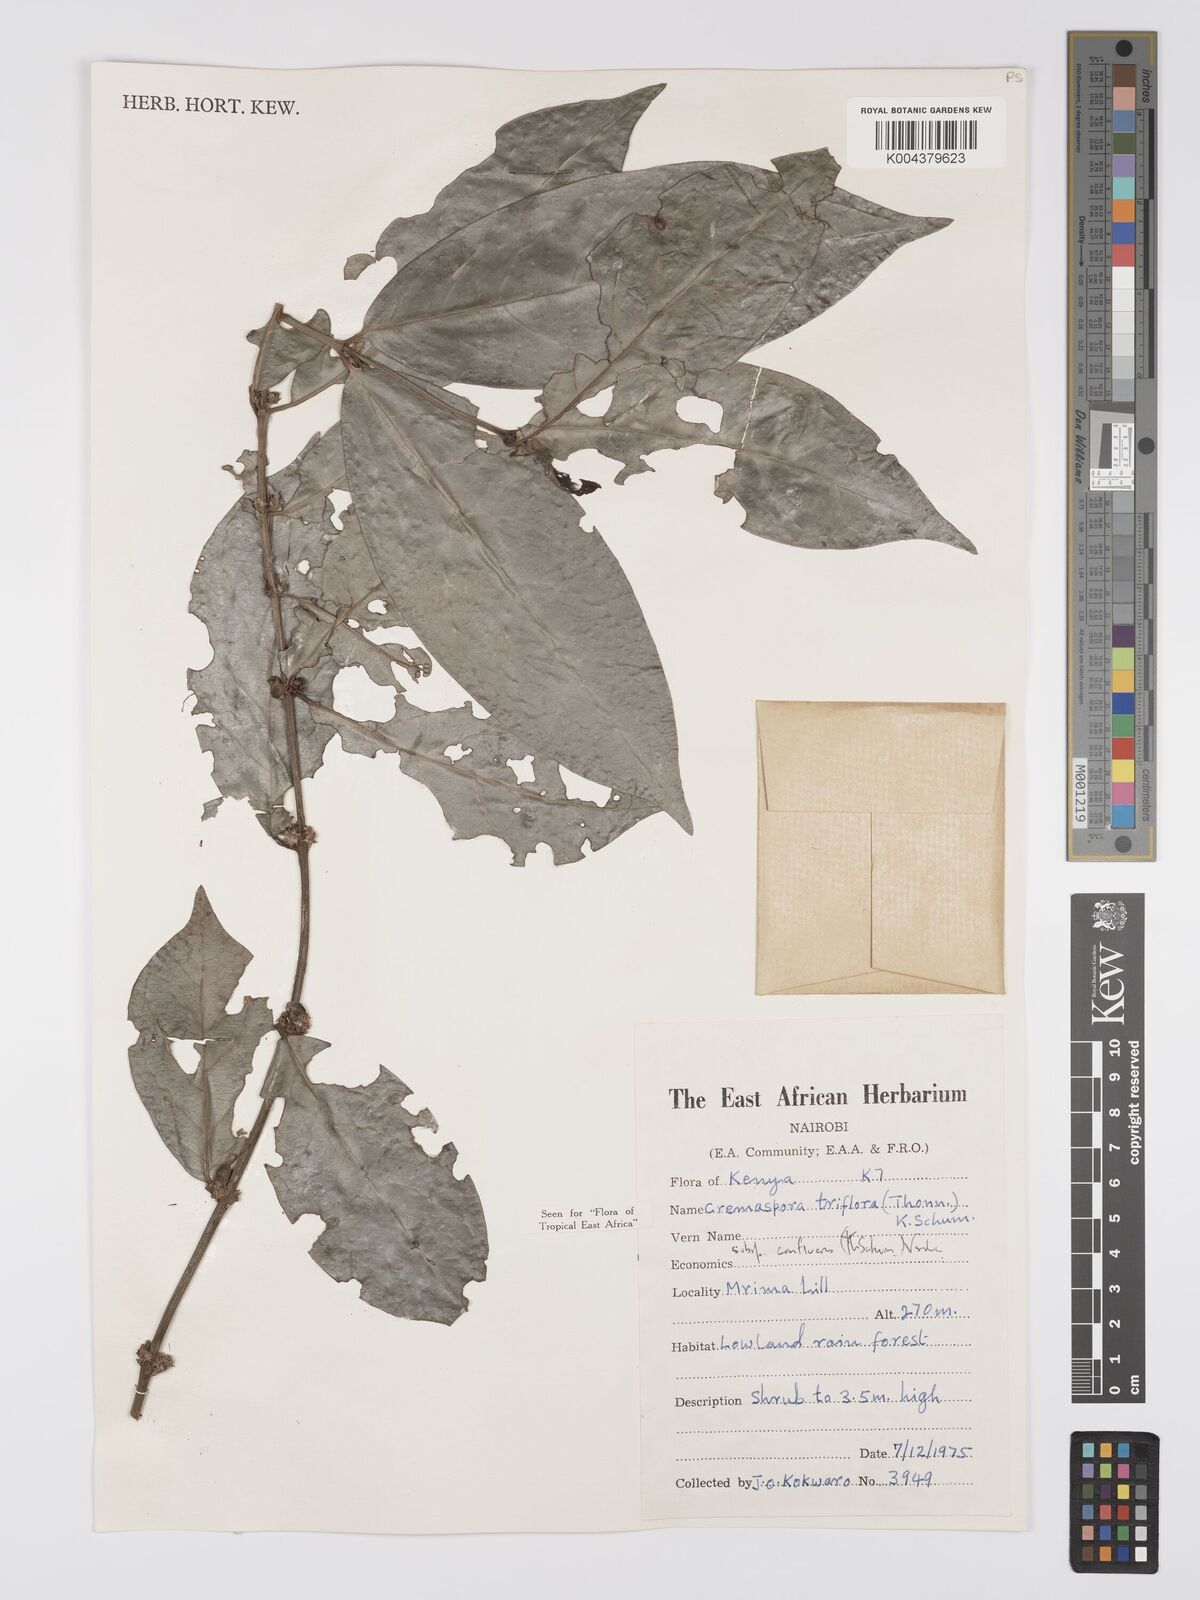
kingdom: Plantae
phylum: Tracheophyta
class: Magnoliopsida
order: Gentianales
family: Rubiaceae
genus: Cremaspora
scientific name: Cremaspora triflora
